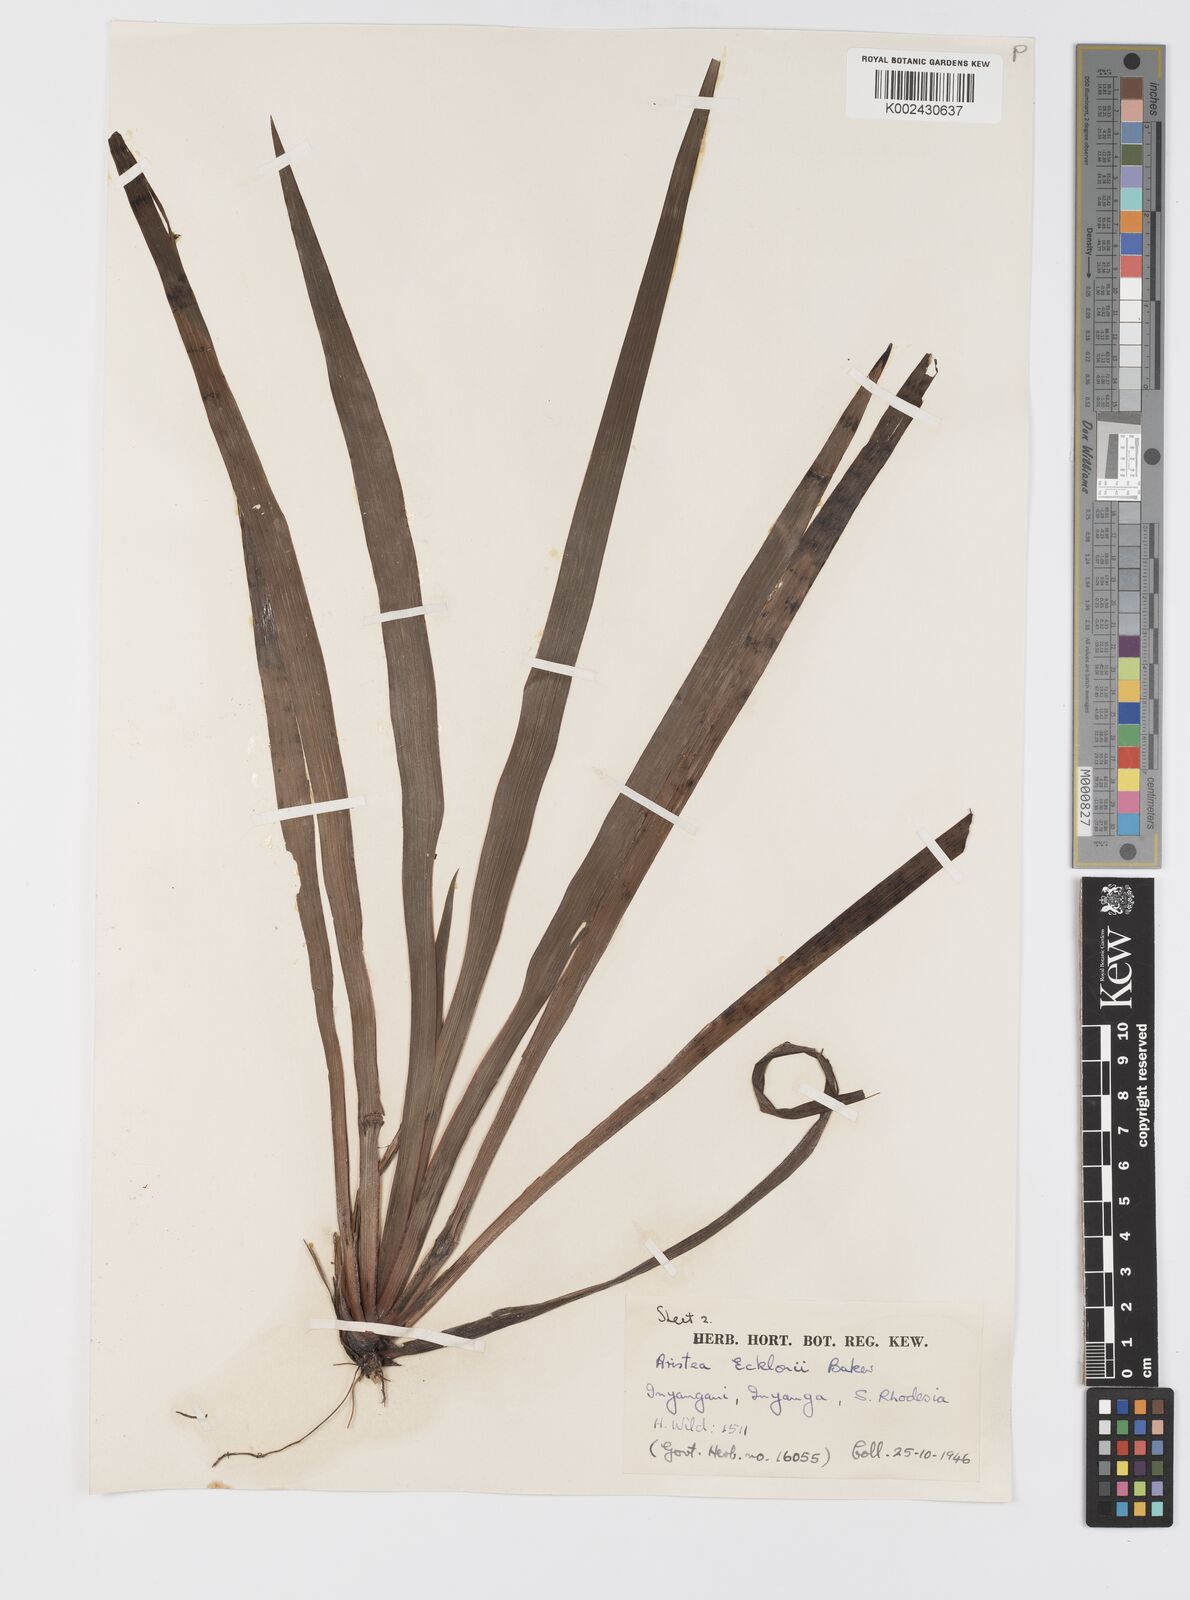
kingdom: Plantae
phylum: Tracheophyta
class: Liliopsida
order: Asparagales
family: Iridaceae
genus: Aristea
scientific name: Aristea ecklonii
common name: Blue corn-lily
